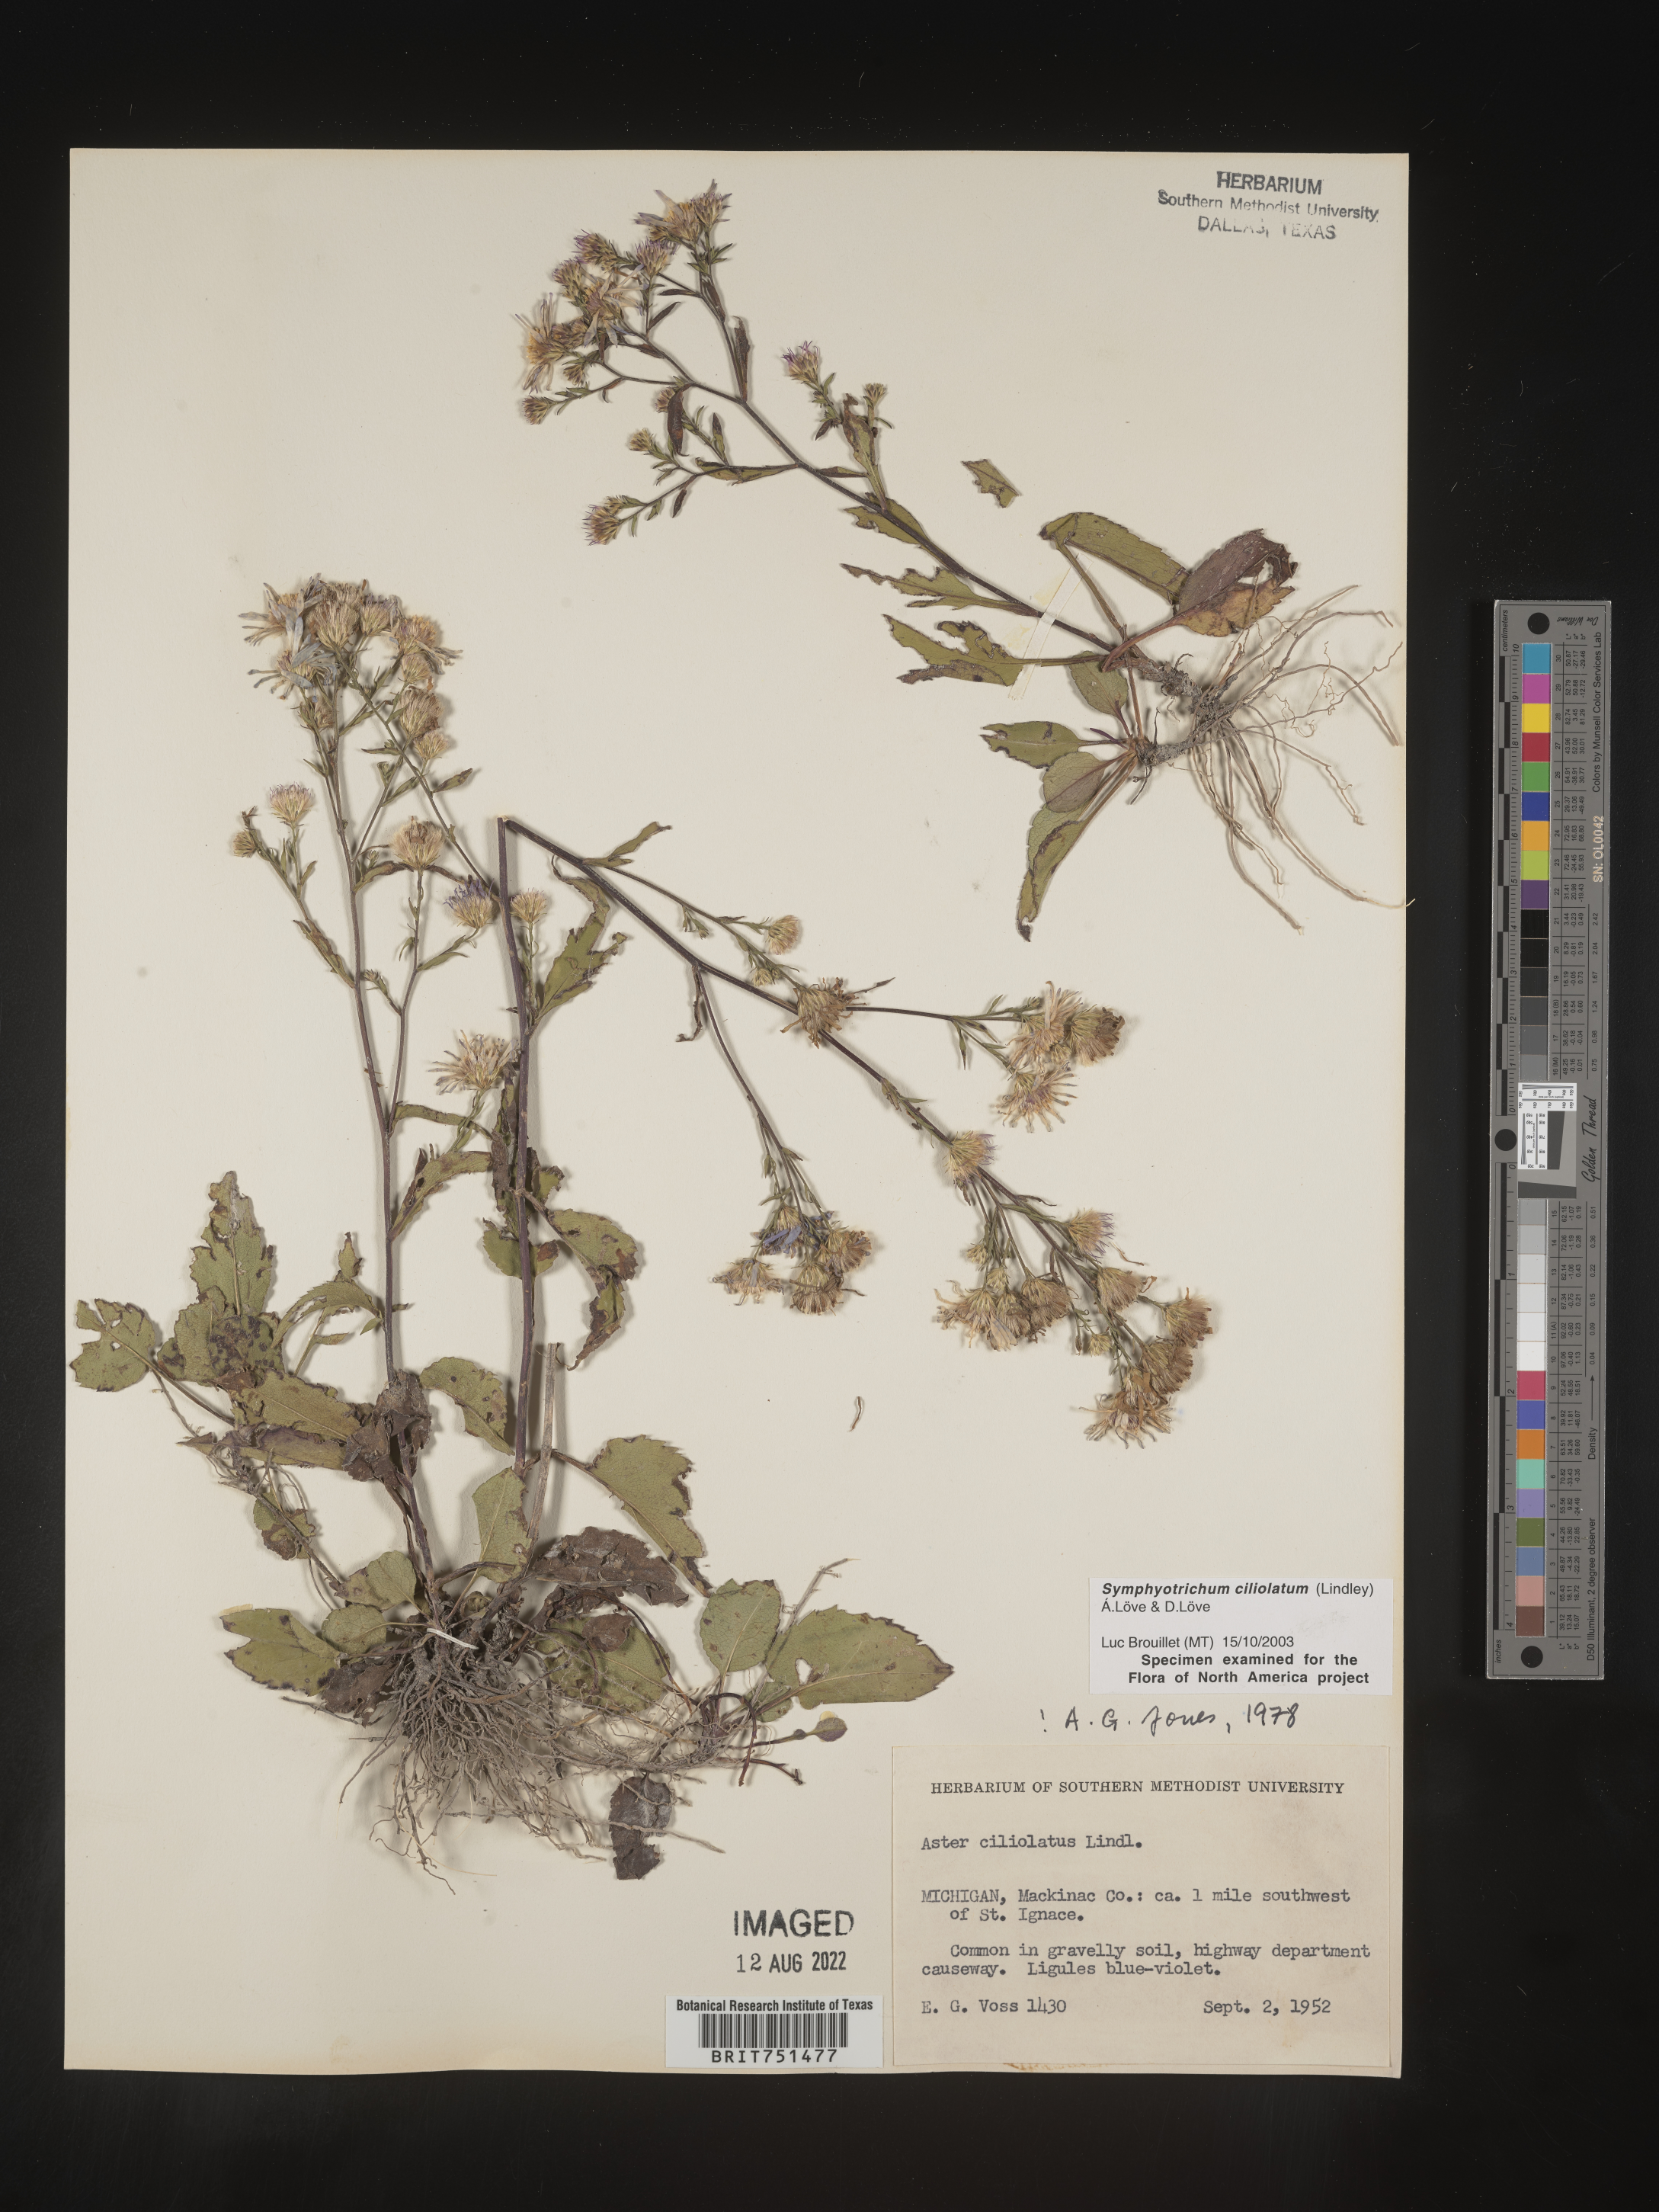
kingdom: Plantae
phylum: Tracheophyta
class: Magnoliopsida
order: Asterales
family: Asteraceae
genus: Symphyotrichum
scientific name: Symphyotrichum ciliolatum
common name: Fringed blue aster
